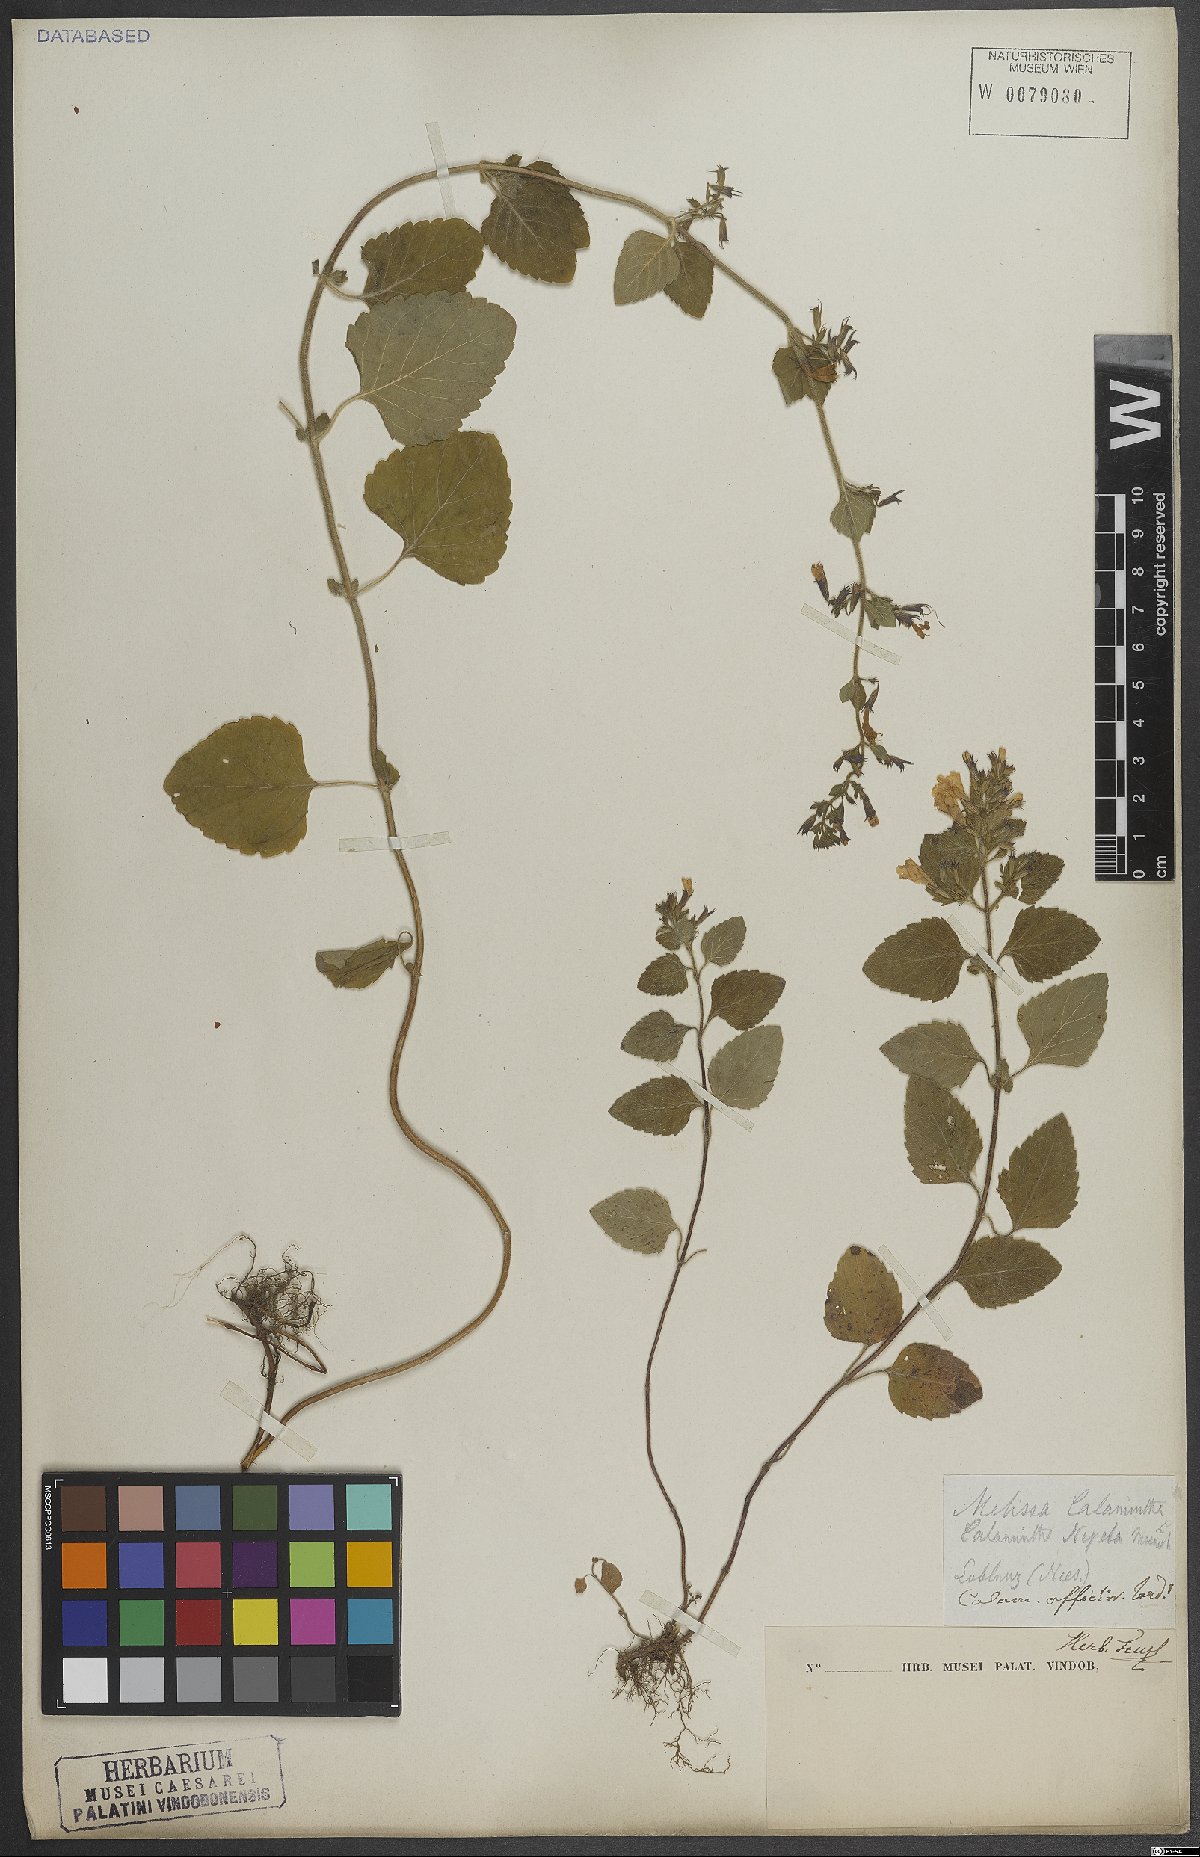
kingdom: Plantae
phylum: Tracheophyta
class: Magnoliopsida
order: Lamiales
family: Lamiaceae
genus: Clinopodium
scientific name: Clinopodium nepeta
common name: Lesser calamint
